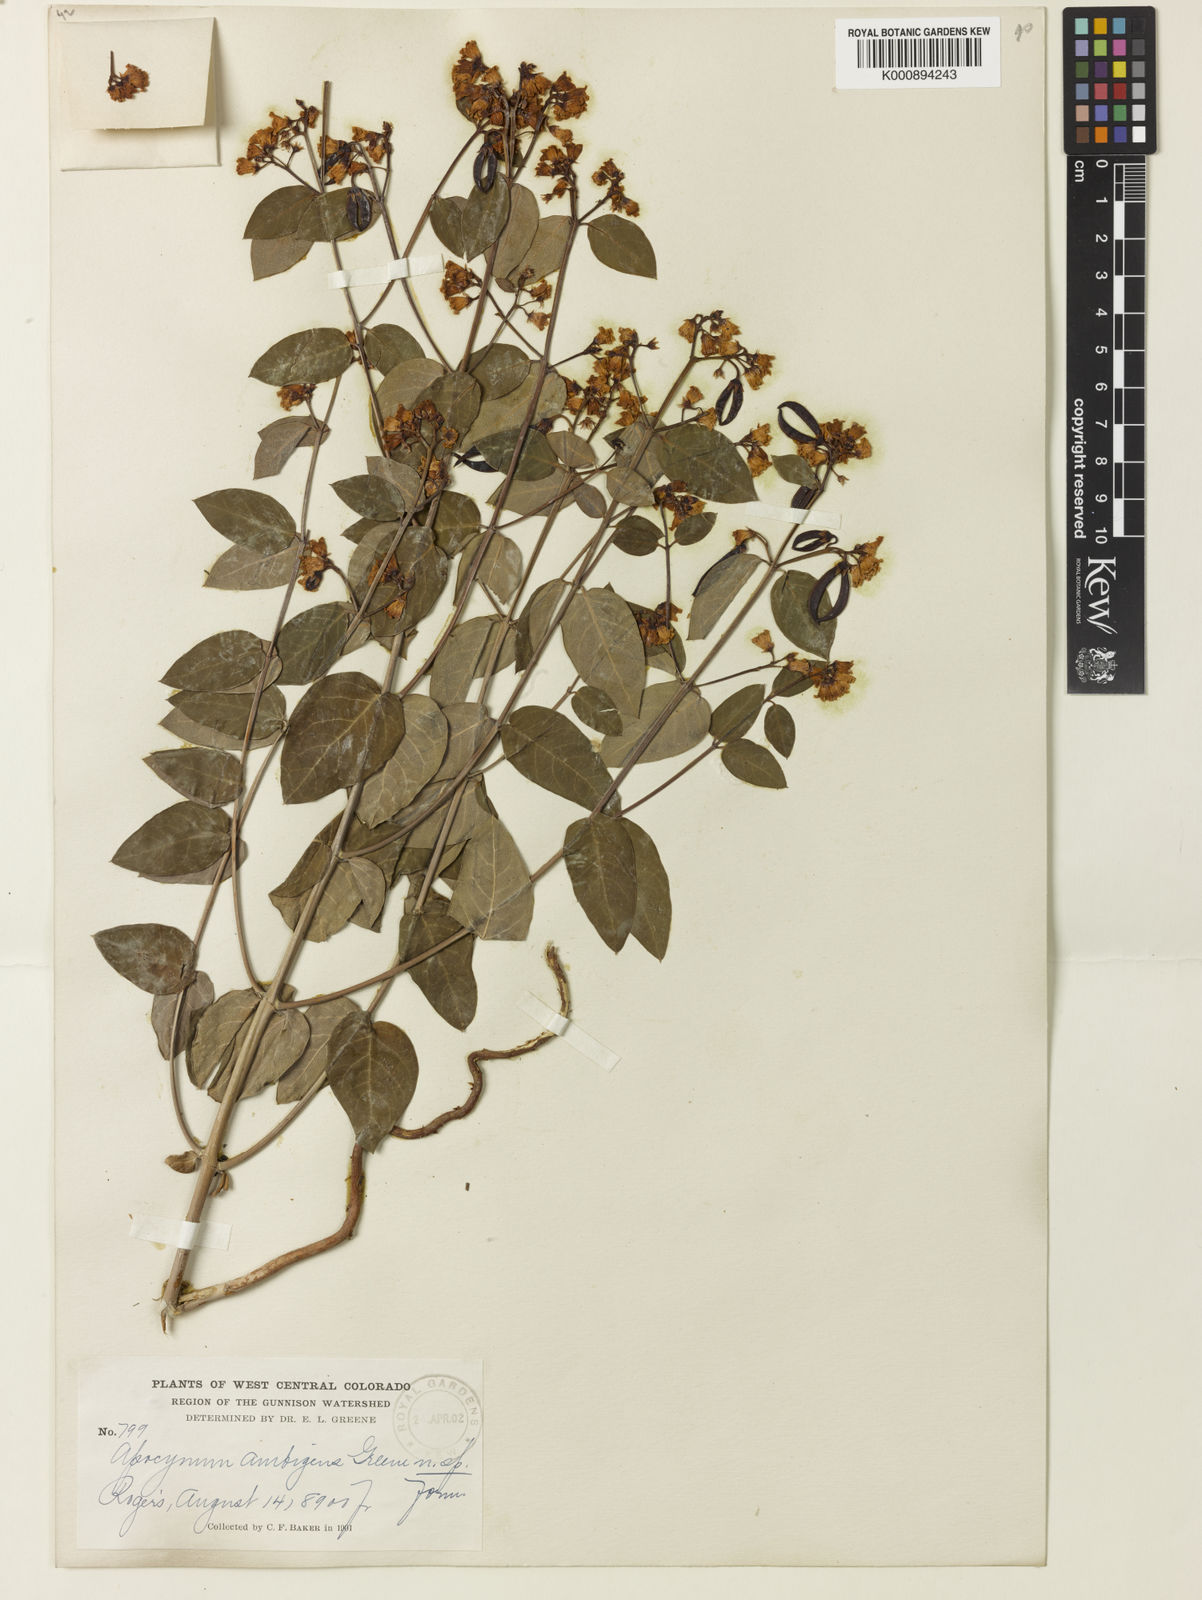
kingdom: Plantae
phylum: Tracheophyta
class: Magnoliopsida
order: Gentianales
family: Apocynaceae
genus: Apocynum
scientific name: Apocynum androsaemifolium
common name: Spreading dogbane
